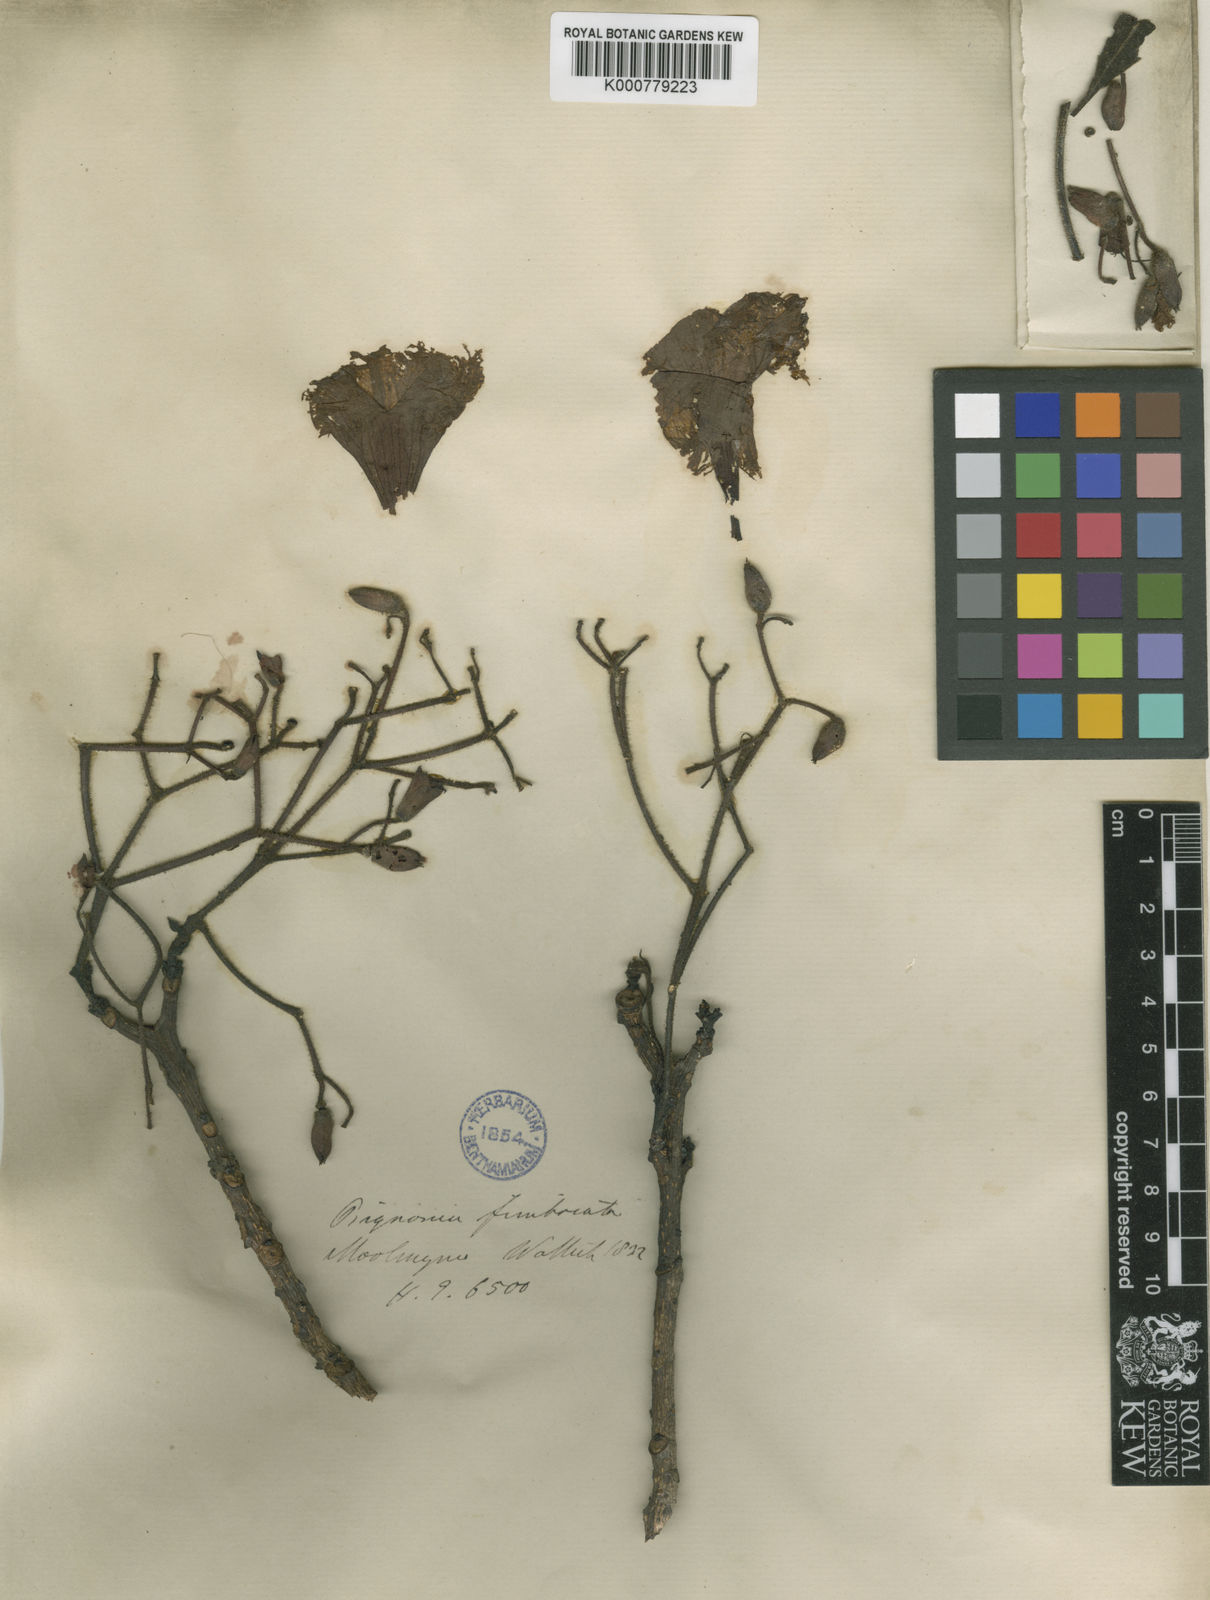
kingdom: Plantae
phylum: Tracheophyta
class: Magnoliopsida
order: Lamiales
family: Bignoniaceae
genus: Stereospermum
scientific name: Stereospermum fimbriatum
